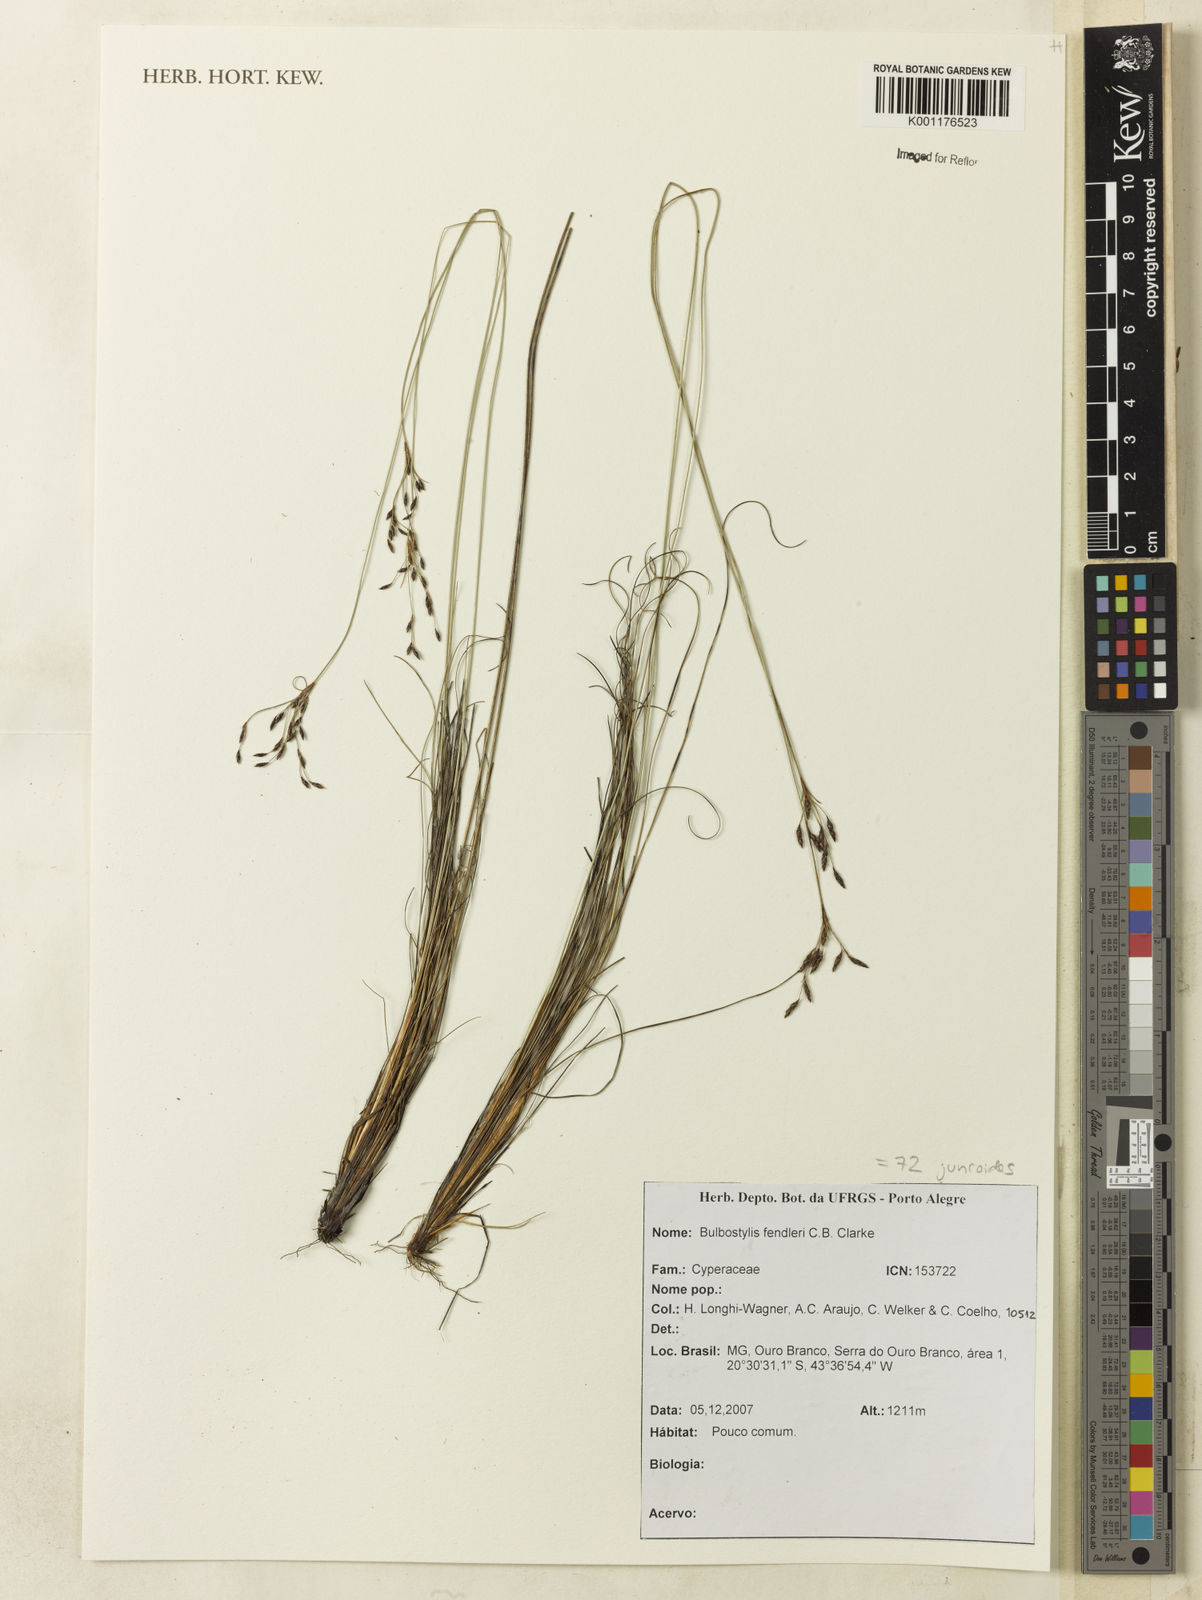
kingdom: Plantae
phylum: Tracheophyta
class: Liliopsida
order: Poales
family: Cyperaceae
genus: Bulbostylis
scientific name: Bulbostylis juncoides
